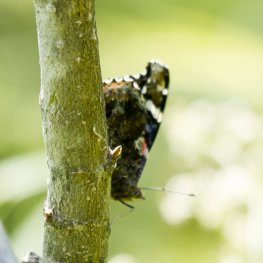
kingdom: Animalia
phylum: Arthropoda
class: Insecta
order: Lepidoptera
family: Nymphalidae
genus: Vanessa
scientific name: Vanessa atalanta
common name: Red Admiral
